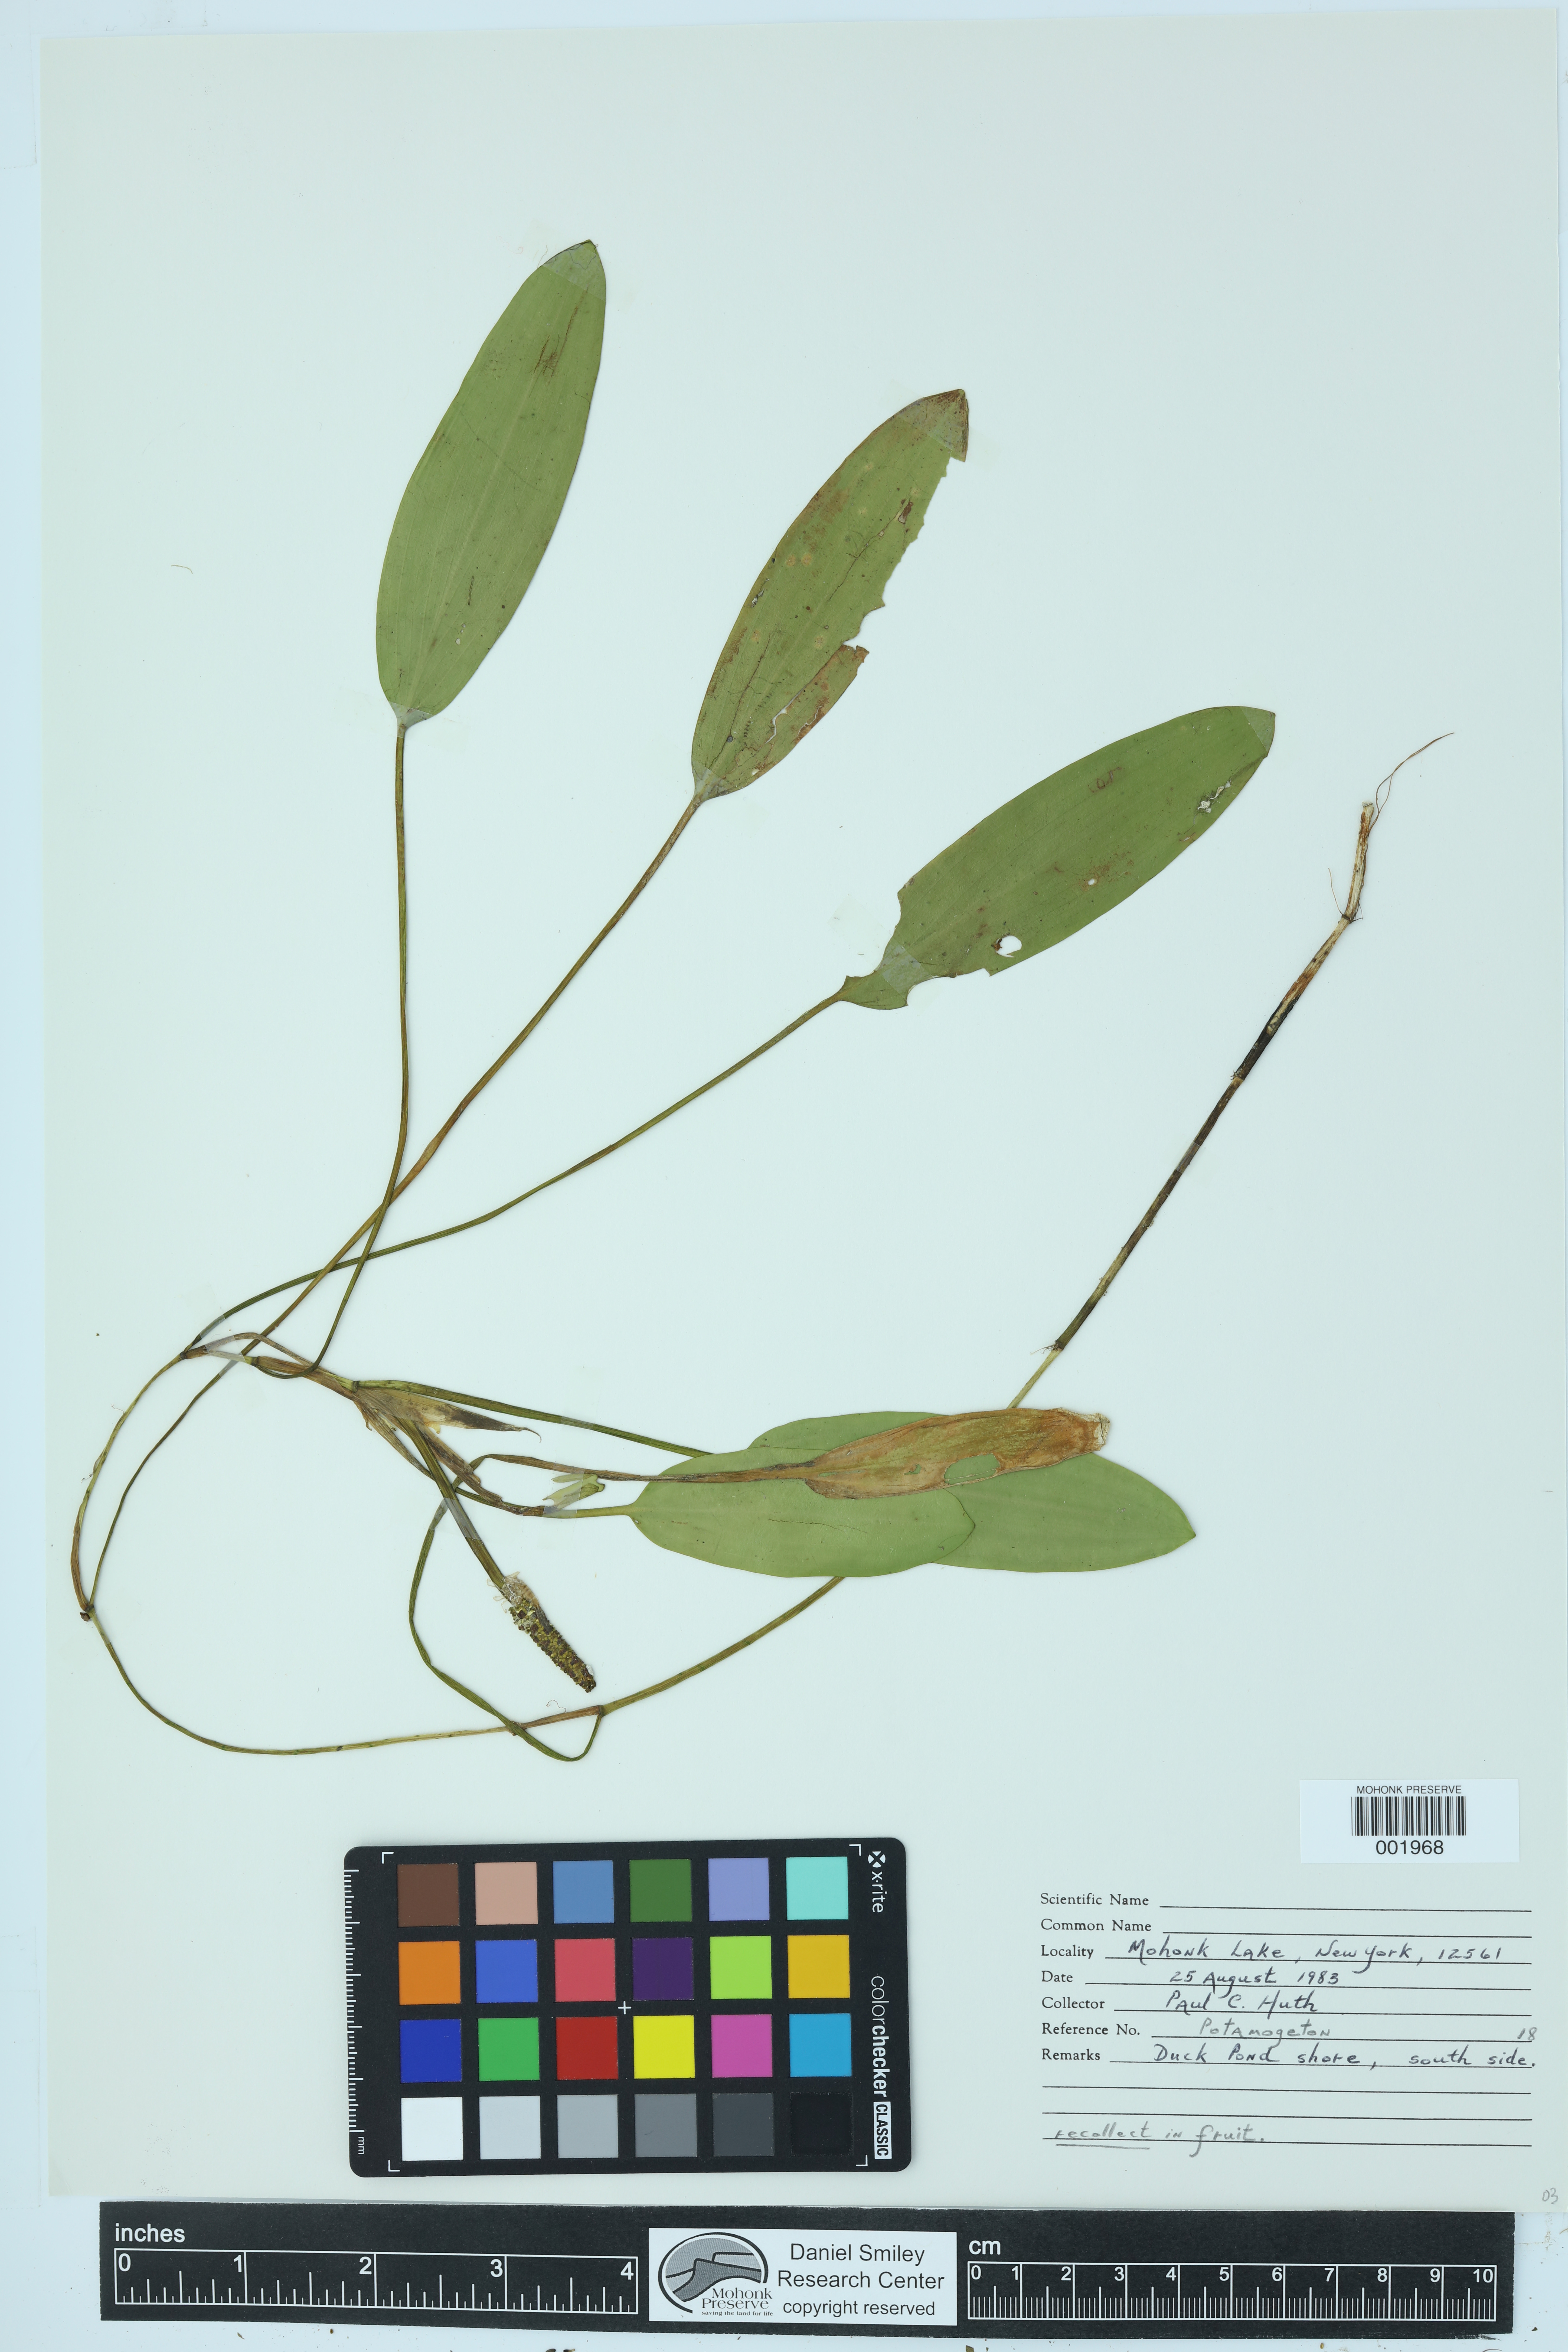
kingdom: Plantae
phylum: Tracheophyta
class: Liliopsida
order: Alismatales
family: Potamogetonaceae
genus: Potamogeton
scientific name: Potamogeton
